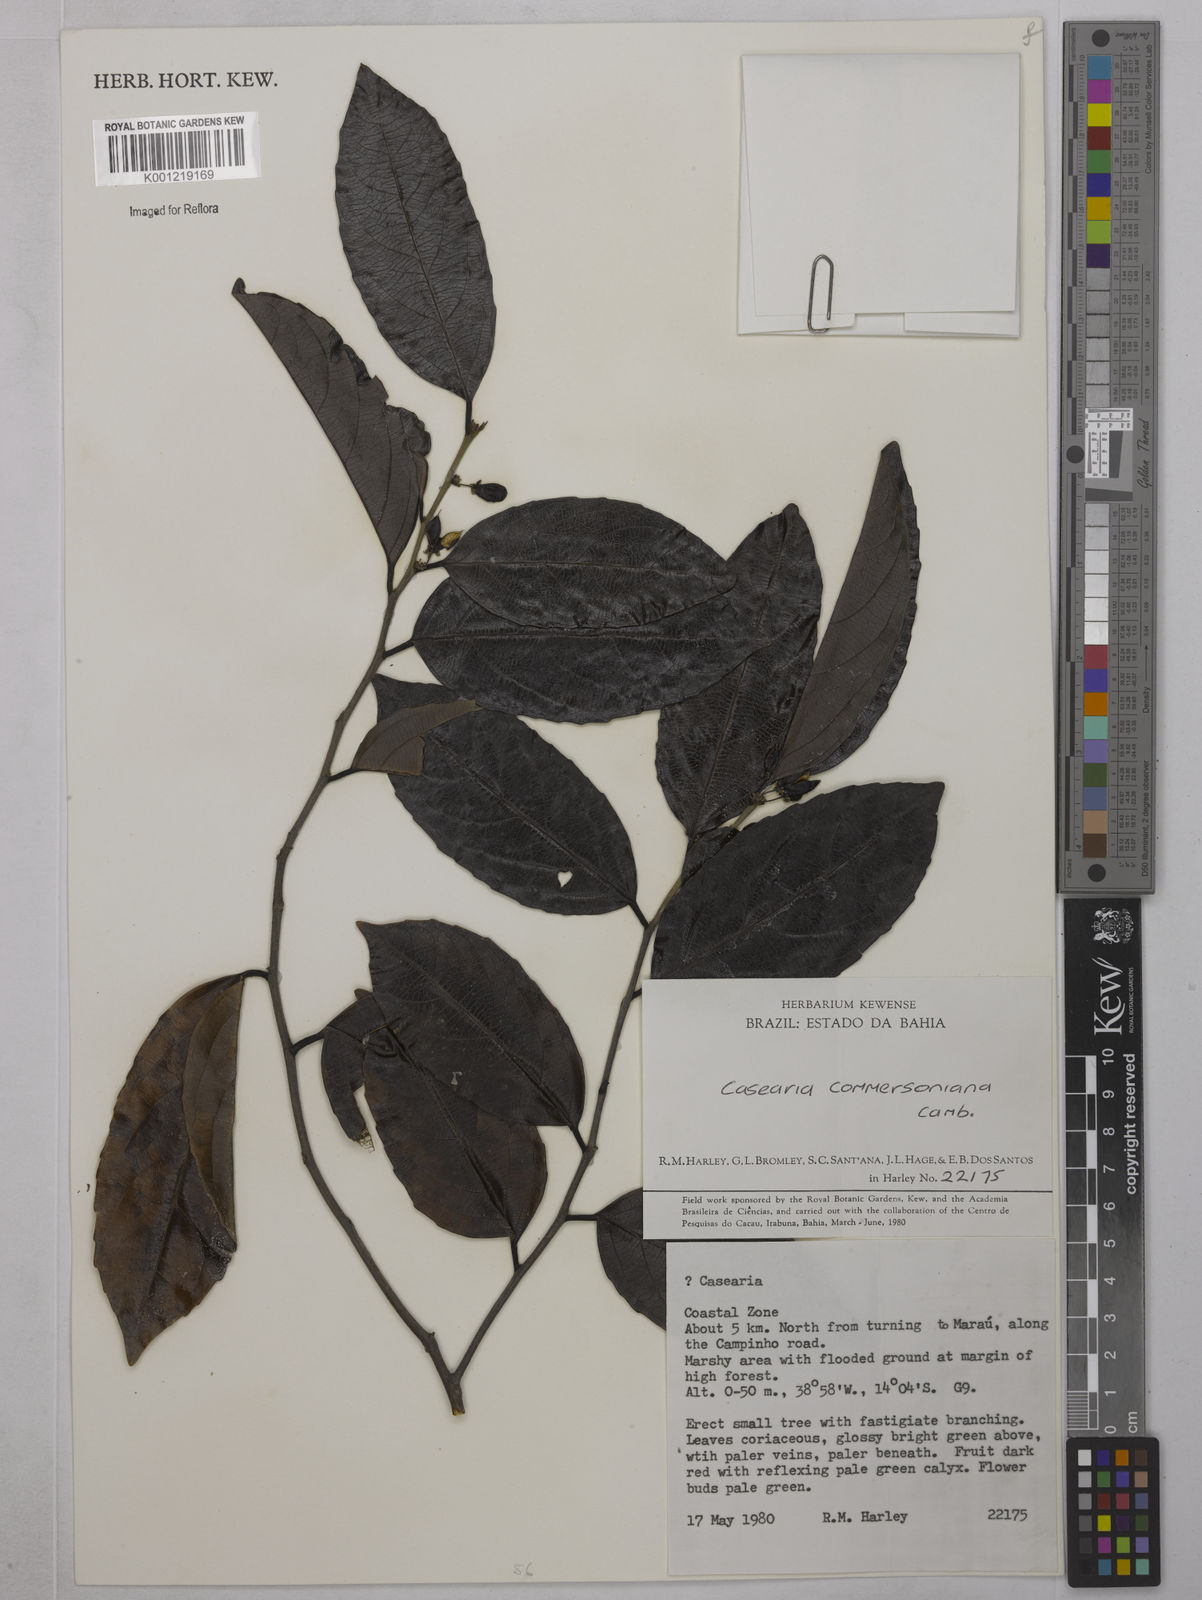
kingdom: Plantae
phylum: Tracheophyta
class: Magnoliopsida
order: Malpighiales
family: Salicaceae
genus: Piparea
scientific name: Piparea dentata
